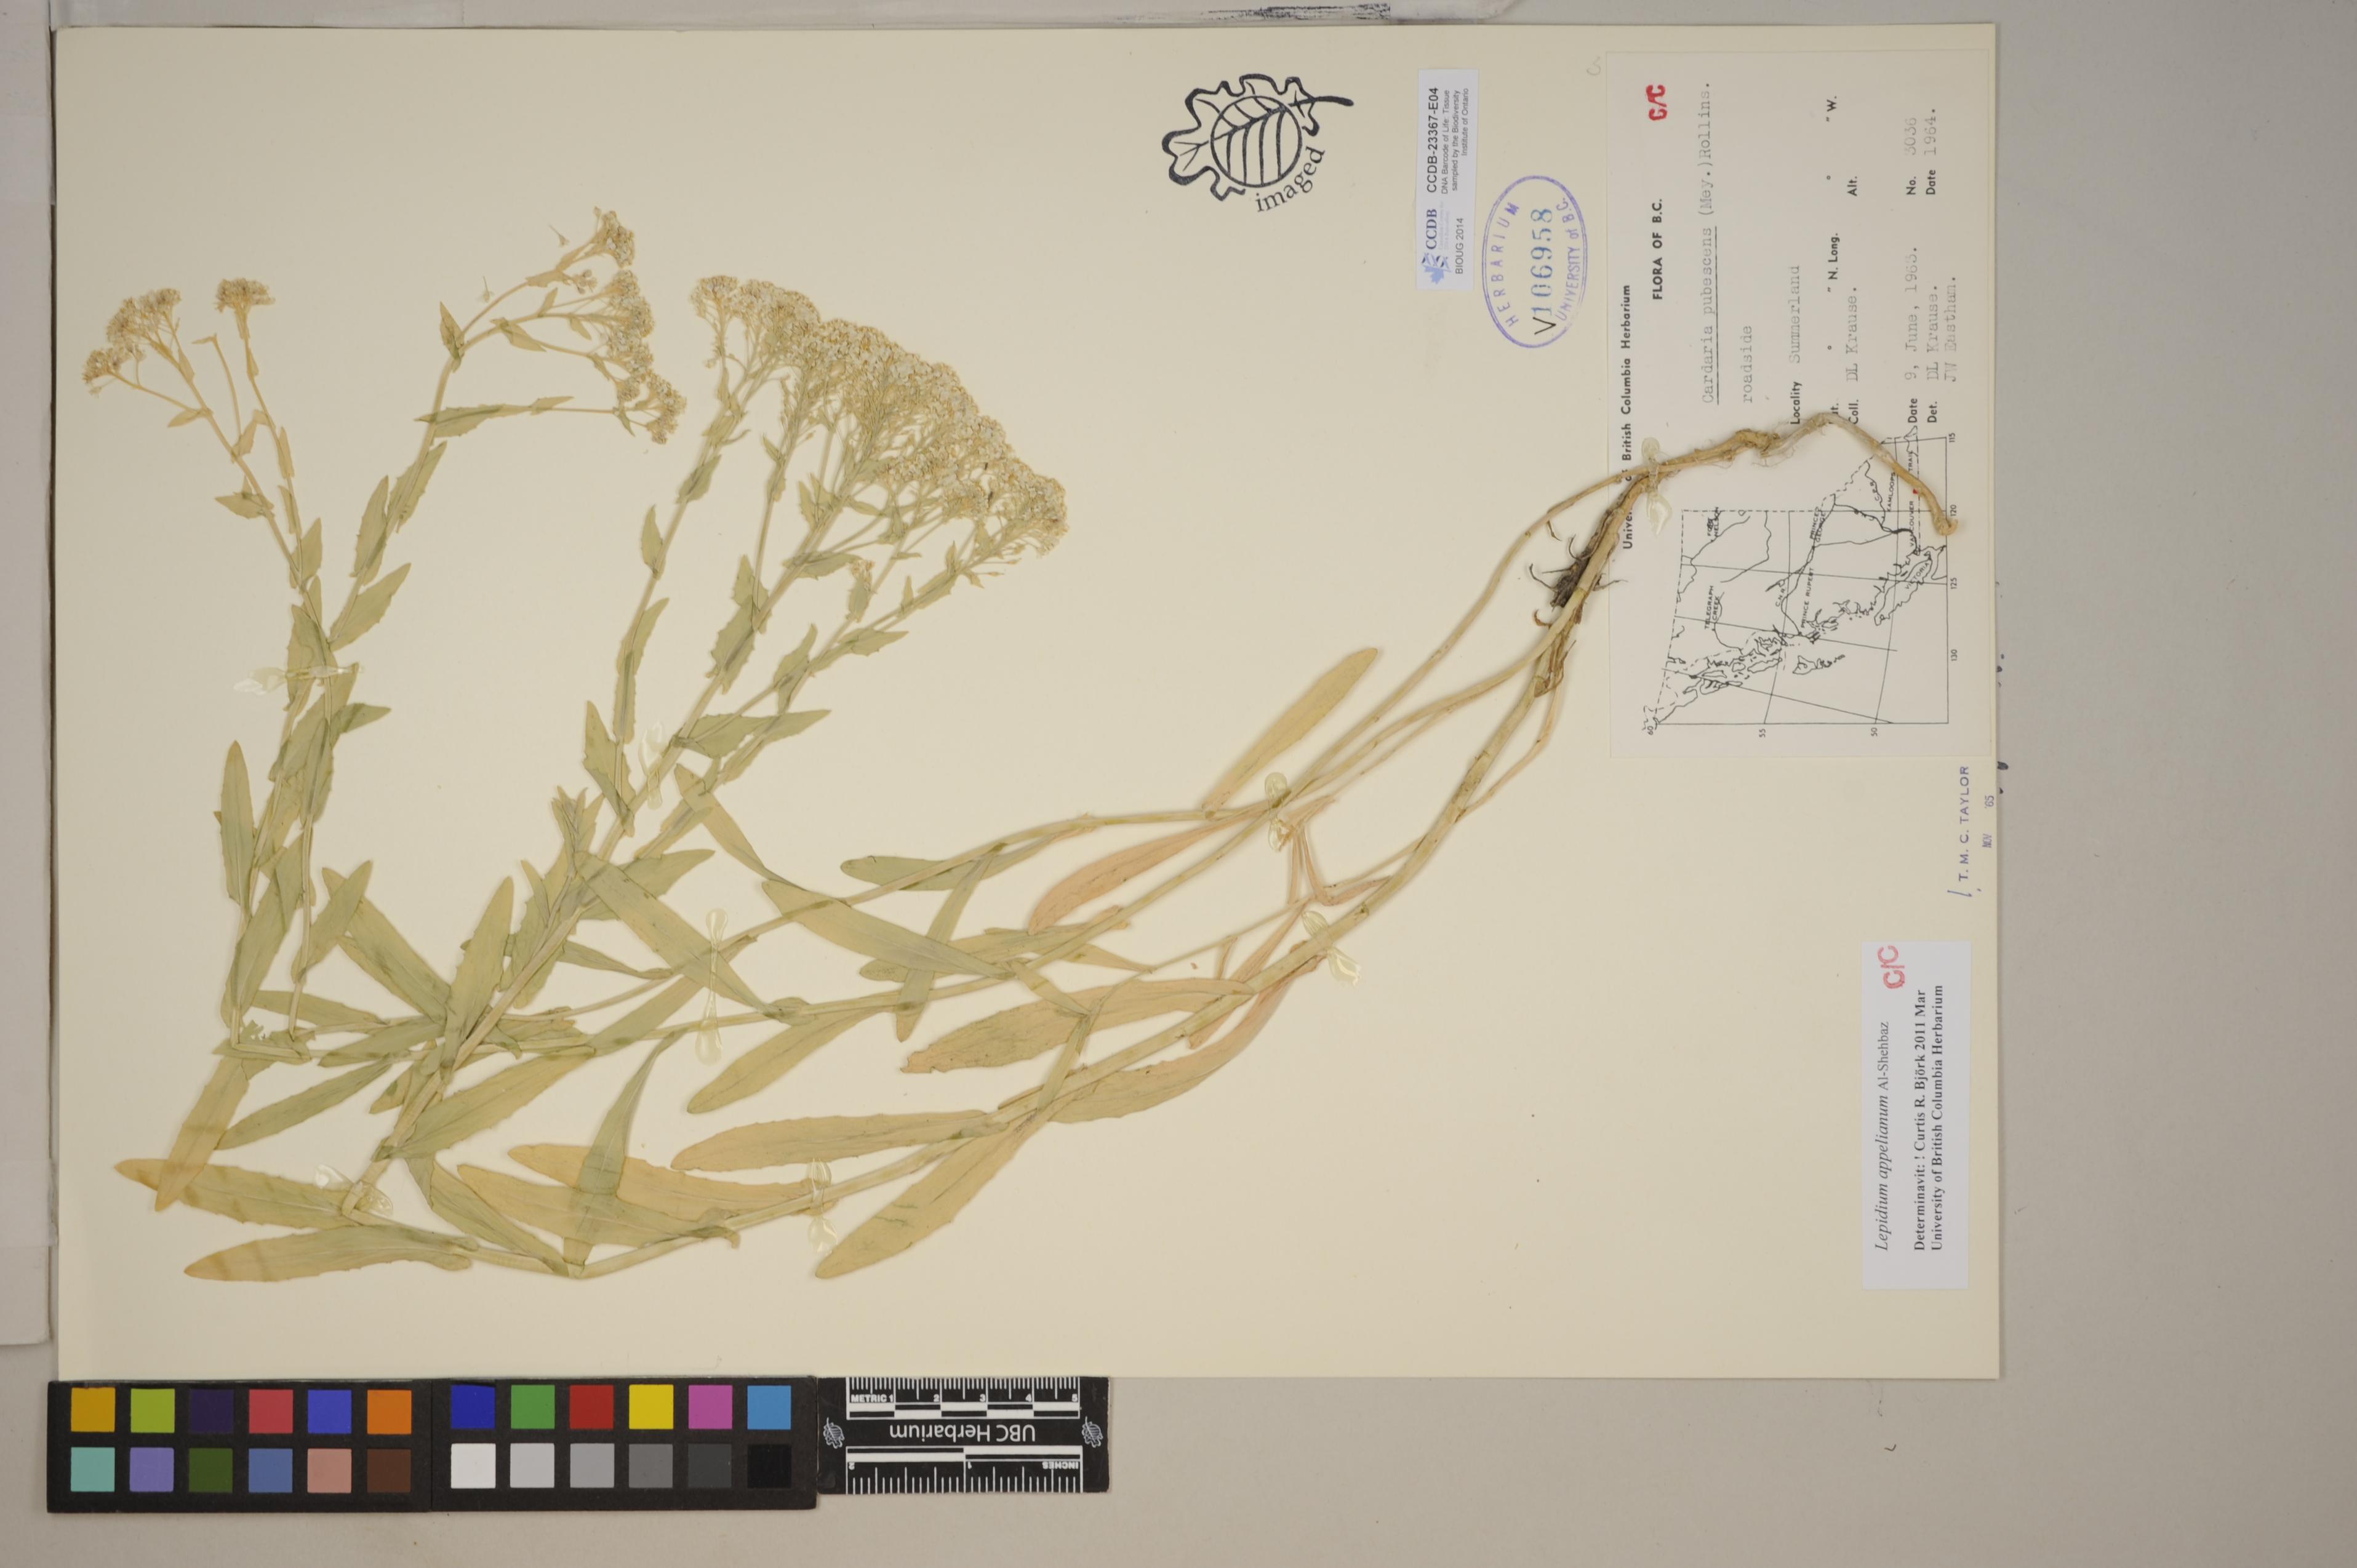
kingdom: Plantae
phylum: Tracheophyta
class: Magnoliopsida
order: Brassicales
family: Brassicaceae
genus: Lepidium
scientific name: Lepidium appelianum
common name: Hairy whitetop
